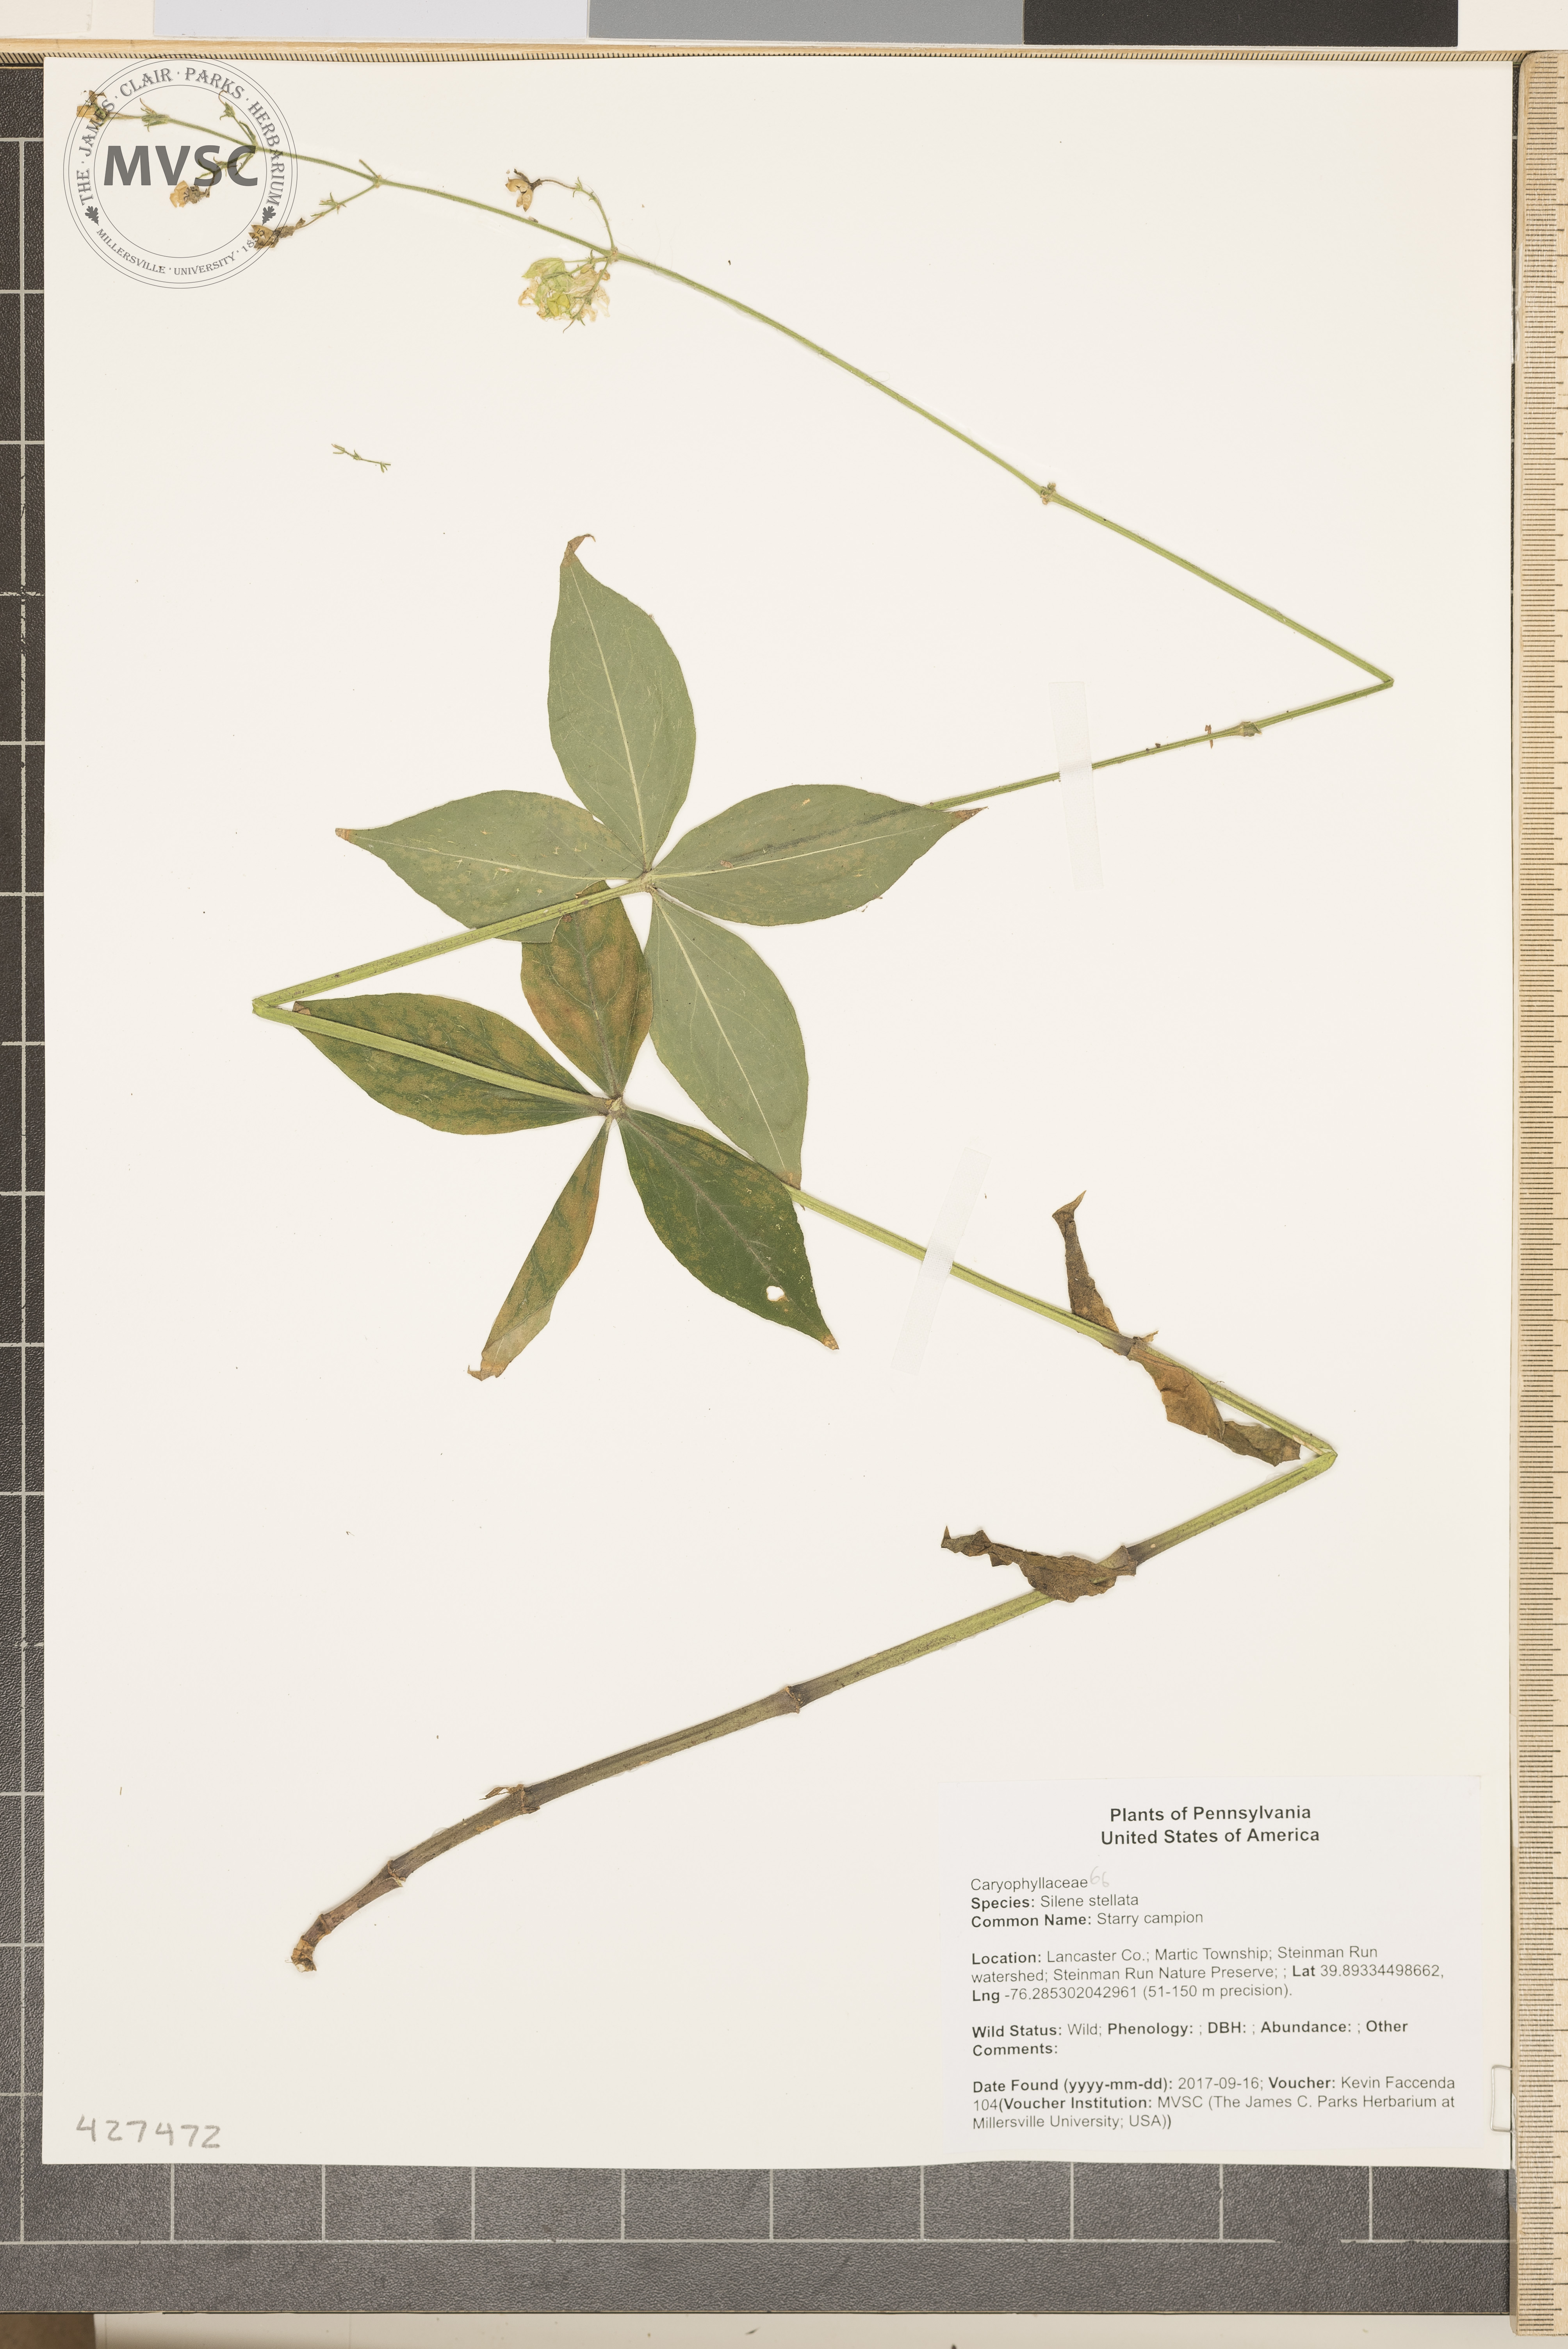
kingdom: Plantae
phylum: Tracheophyta
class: Magnoliopsida
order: Caryophyllales
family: Caryophyllaceae
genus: Silene
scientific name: Silene stellata
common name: Starry campion
